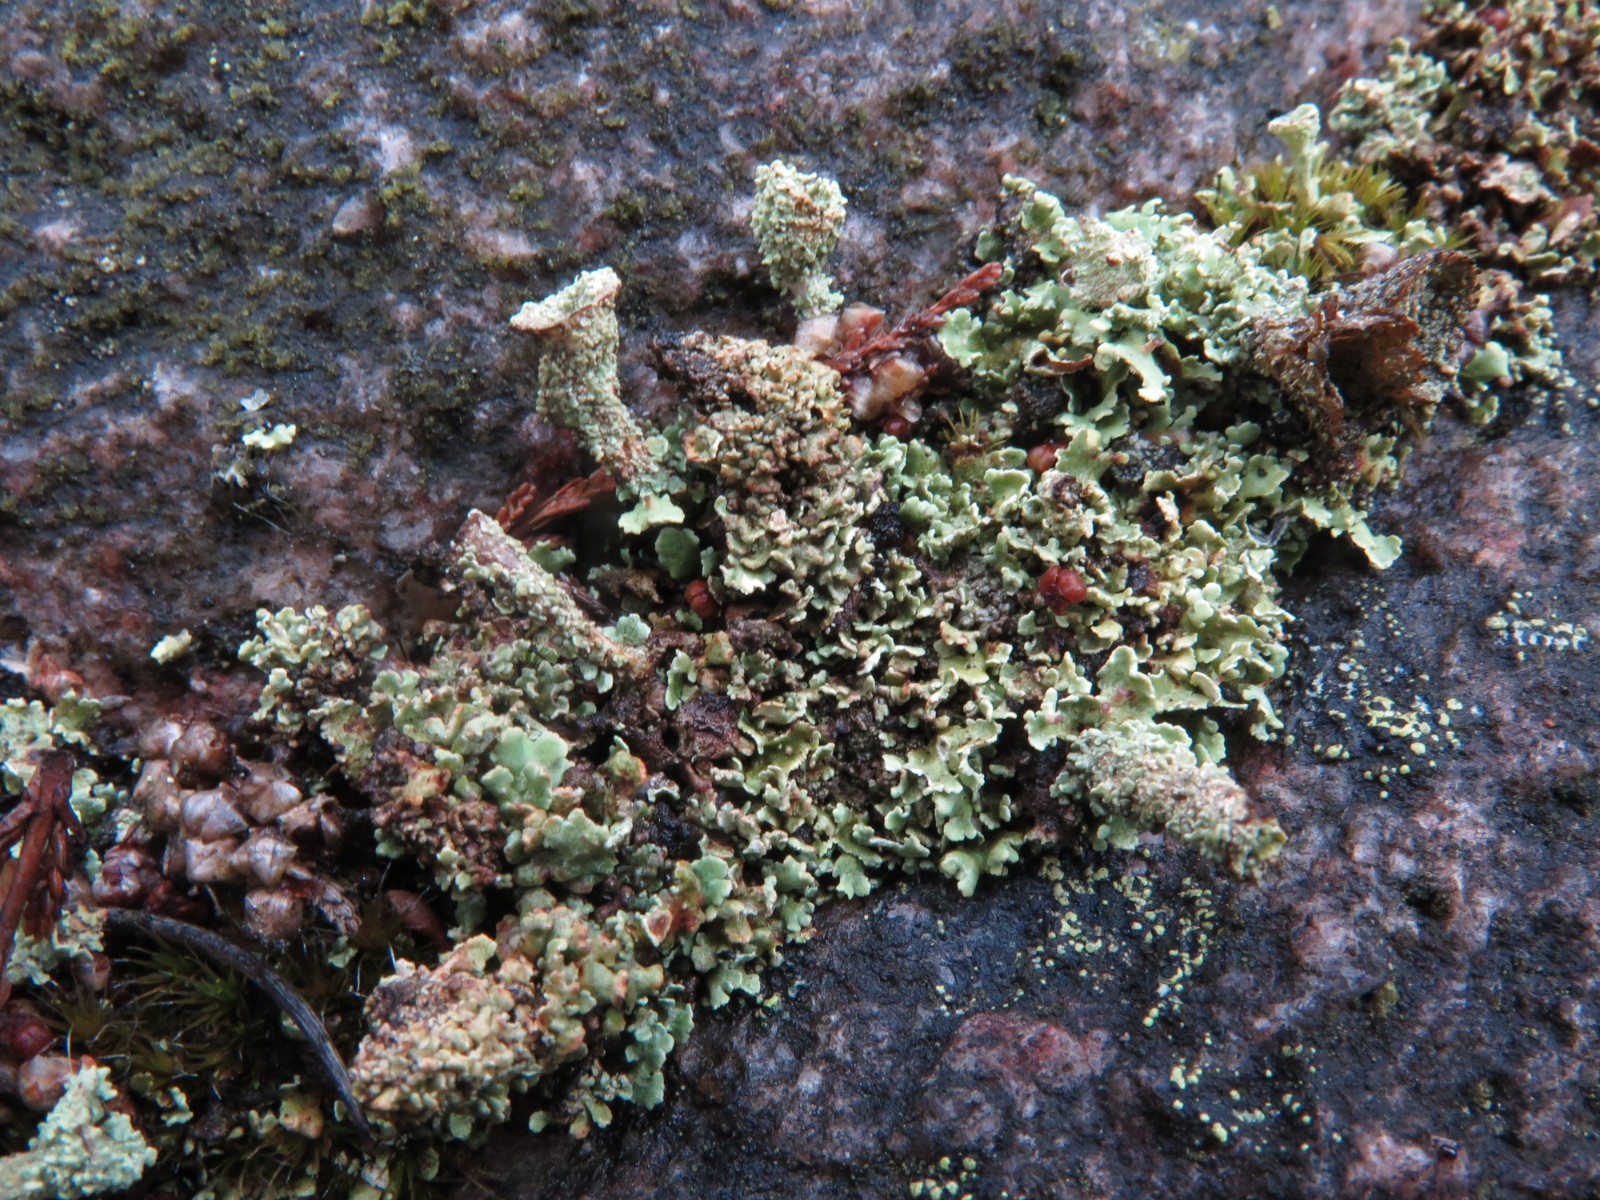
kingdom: Fungi
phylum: Ascomycota
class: Lecanoromycetes
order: Lecanorales
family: Cladoniaceae
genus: Cladonia
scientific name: Cladonia pyxidata
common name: tragt-bægerlav
